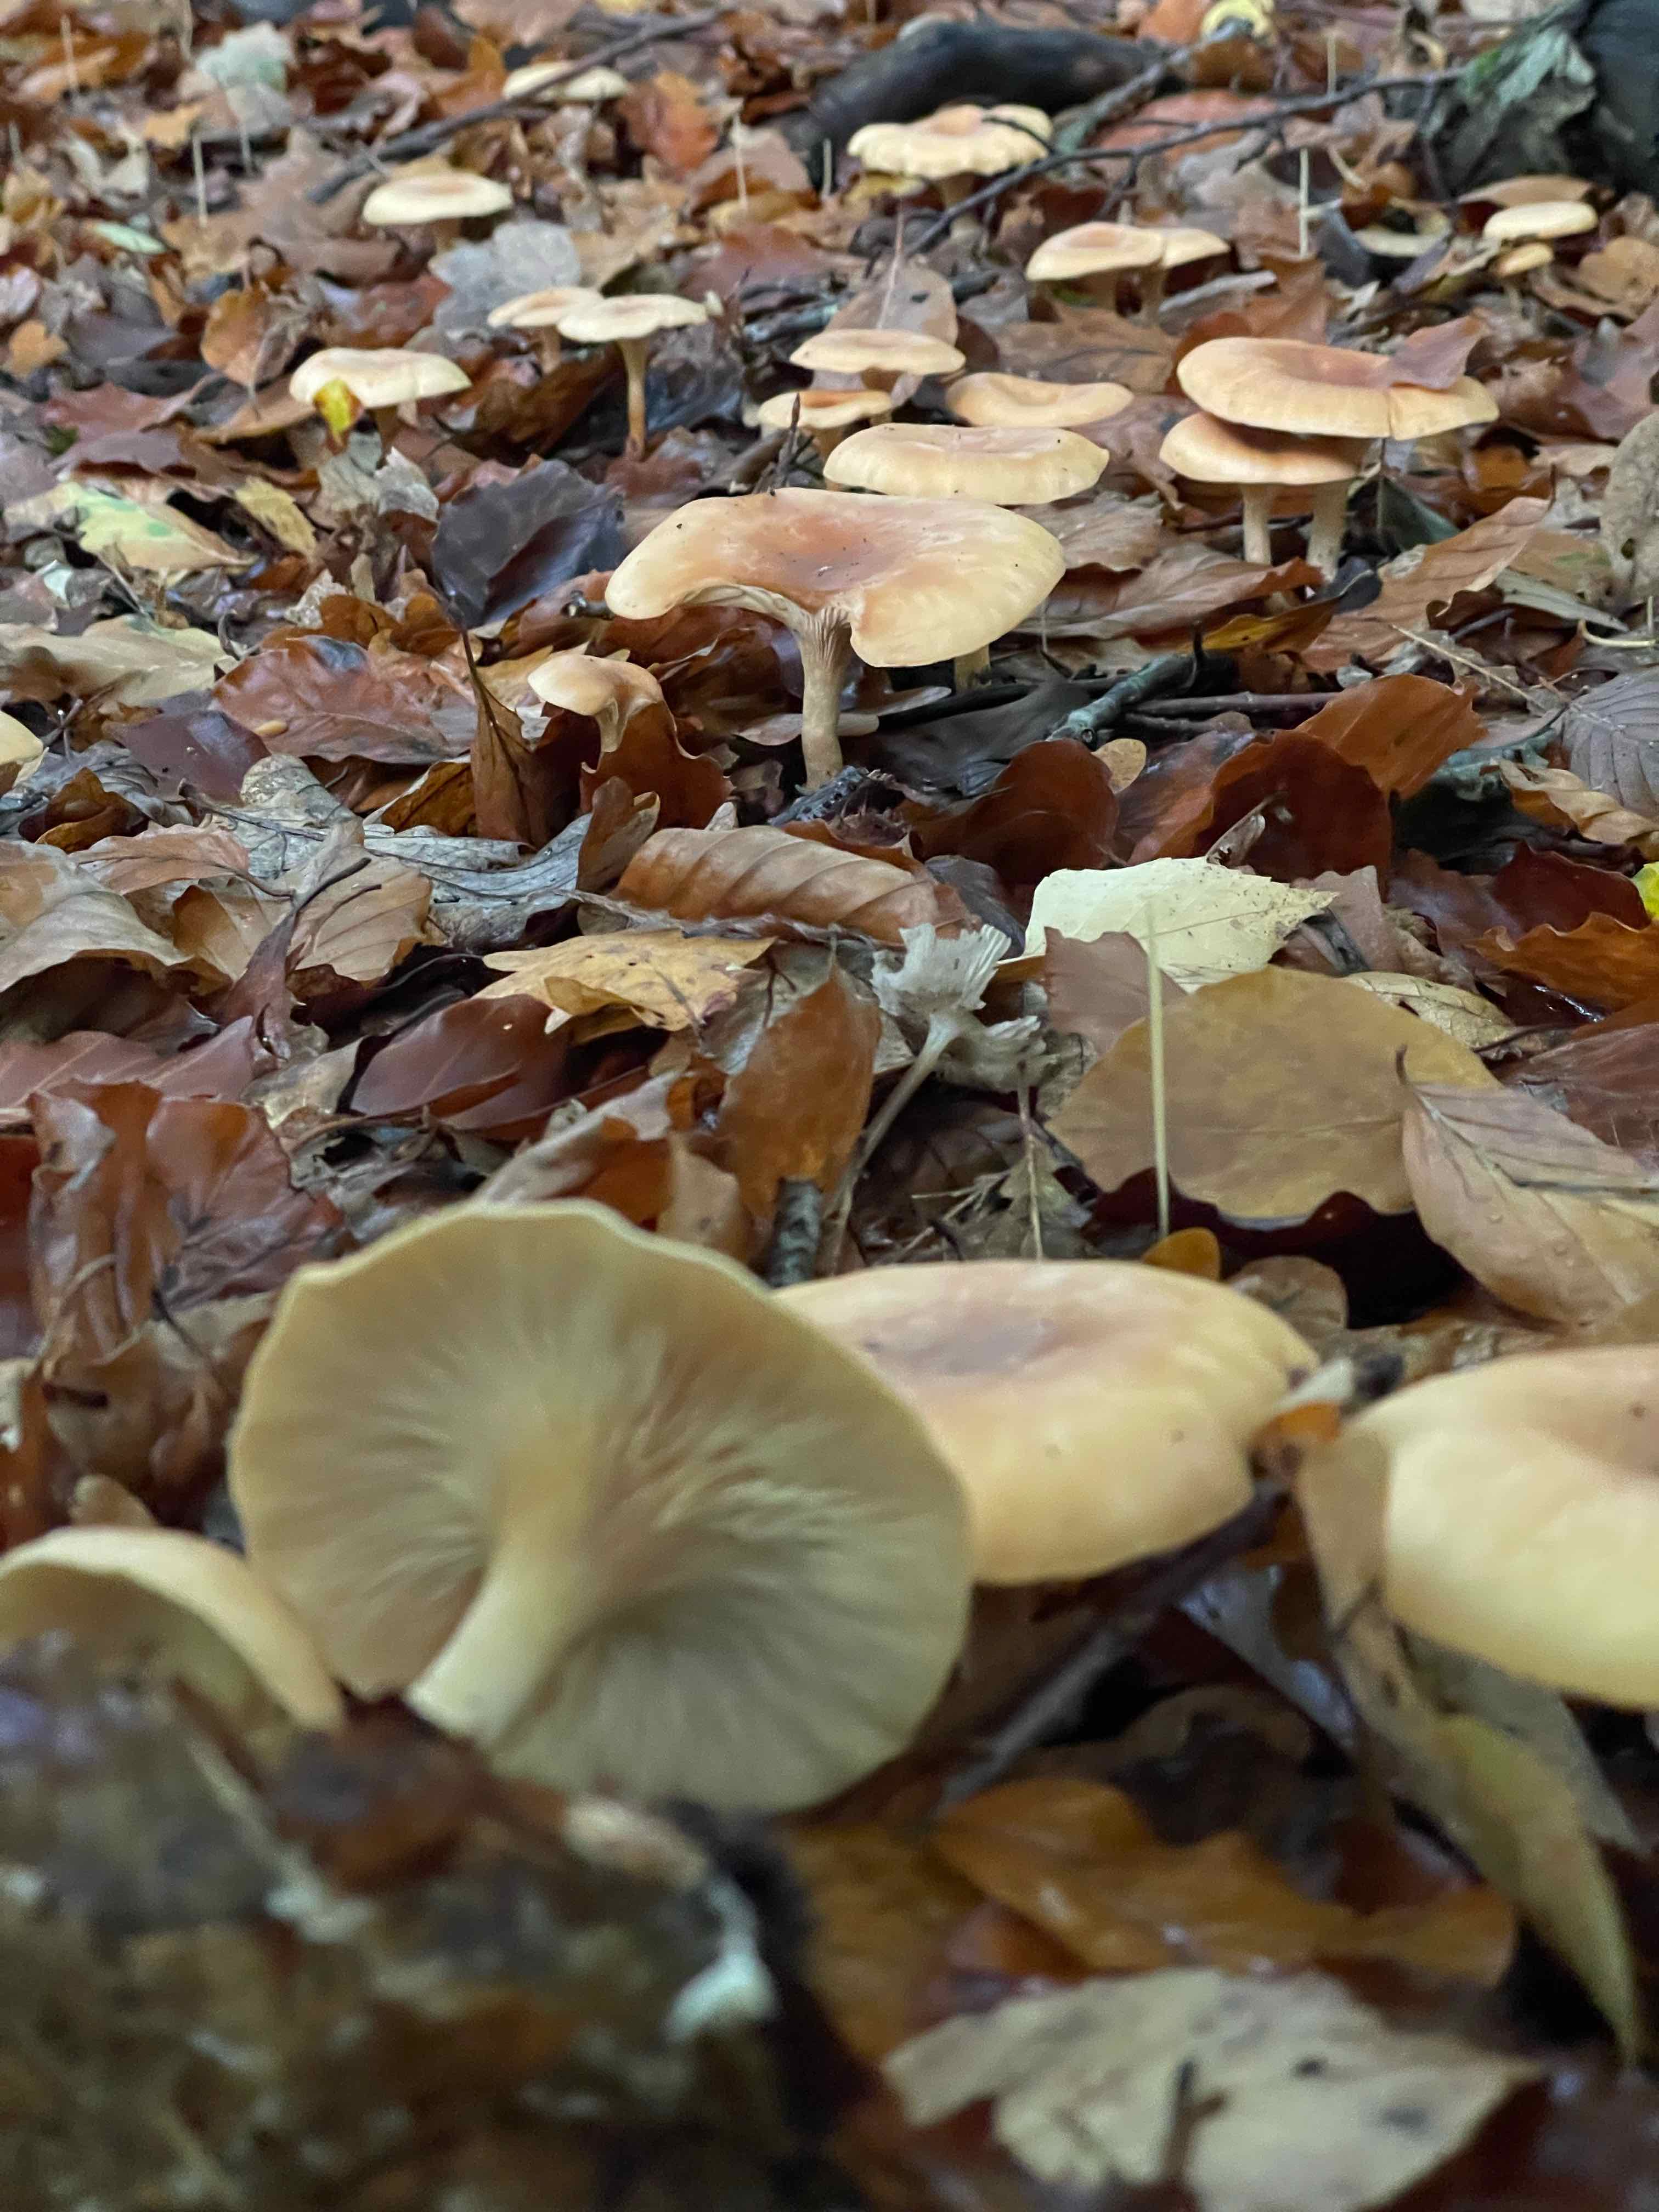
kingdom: Fungi
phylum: Basidiomycota
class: Agaricomycetes
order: Agaricales
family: Tricholomataceae
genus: Paralepista
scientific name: Paralepista flaccida
